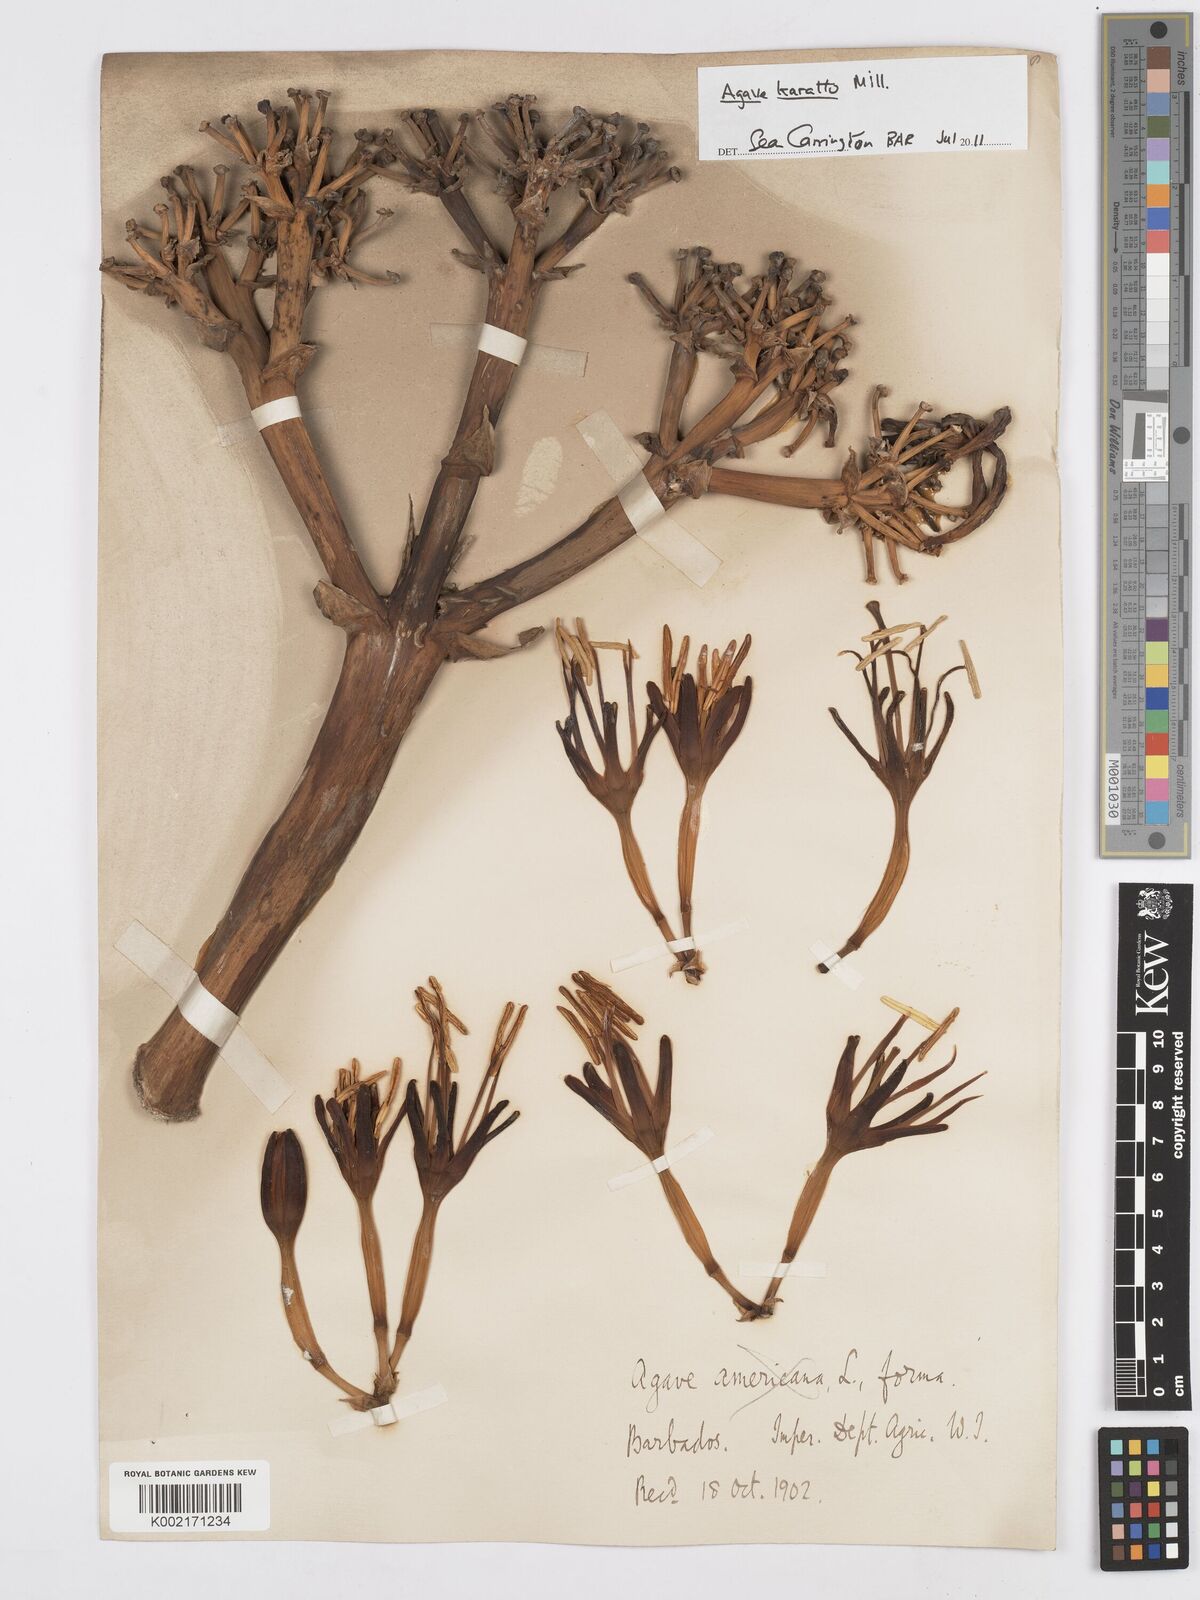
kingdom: Plantae
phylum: Tracheophyta
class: Liliopsida
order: Asparagales
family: Asparagaceae
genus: Agave
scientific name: Agave
